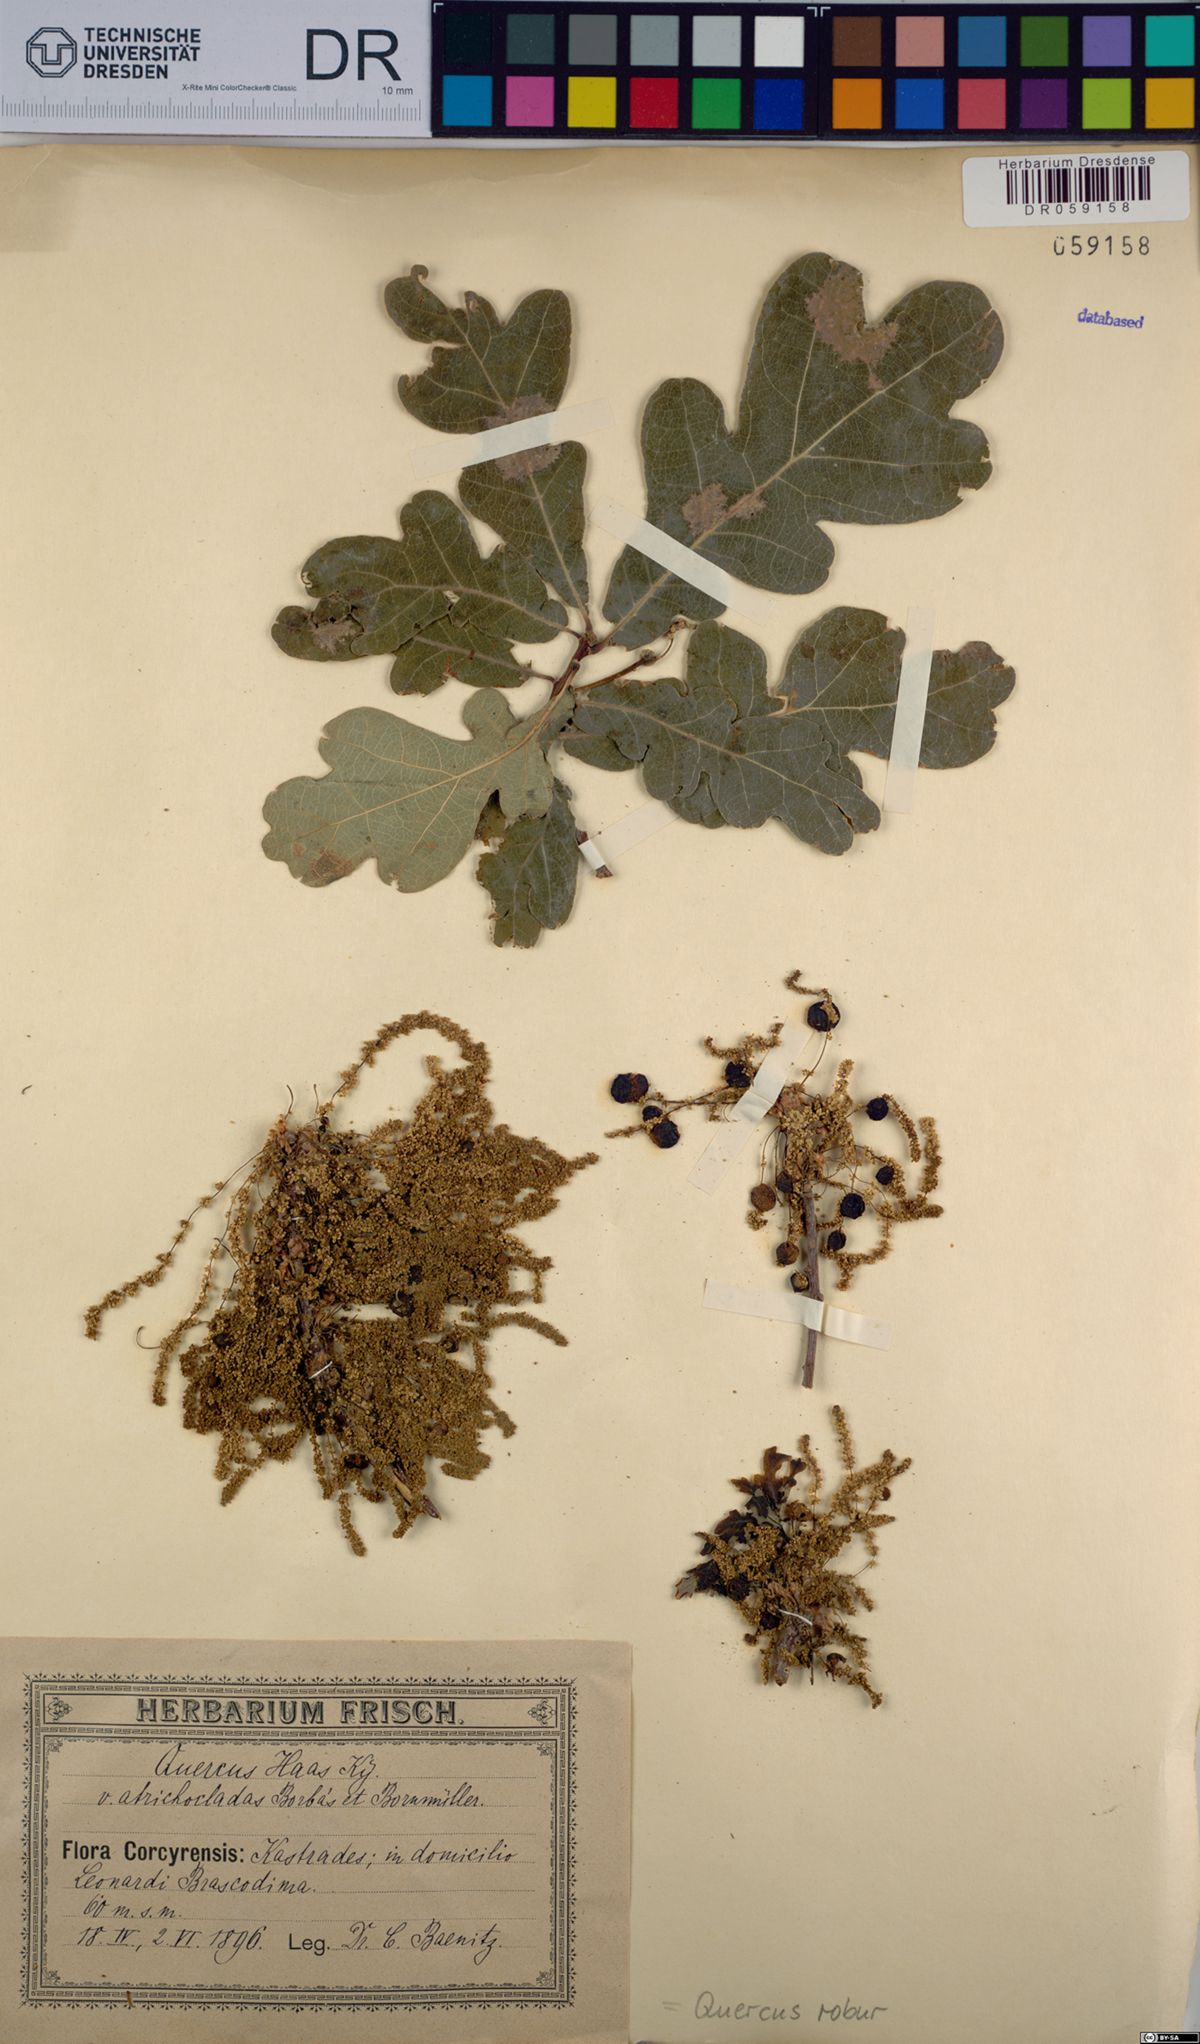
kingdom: Plantae
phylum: Tracheophyta
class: Magnoliopsida
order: Fagales
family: Fagaceae
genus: Quercus
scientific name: Quercus robur
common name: Pedunculate oak
